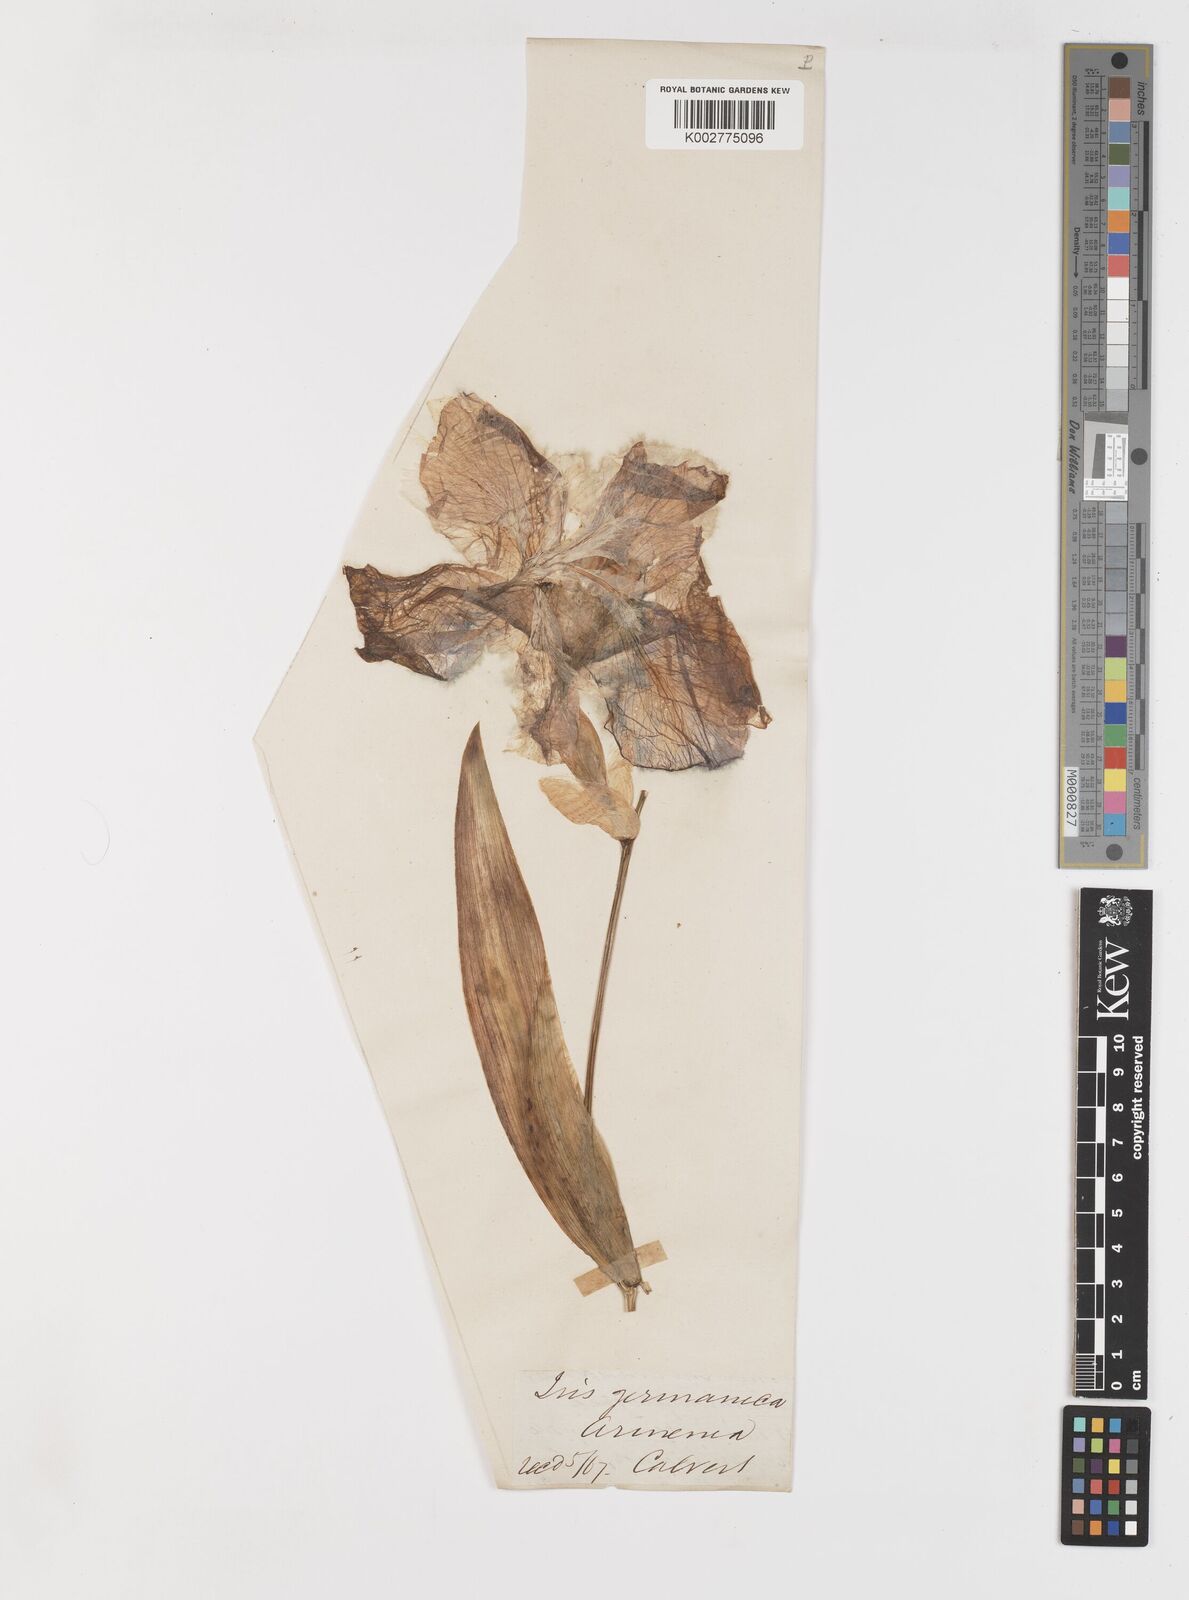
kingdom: Plantae
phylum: Tracheophyta
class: Liliopsida
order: Asparagales
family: Iridaceae
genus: Iris
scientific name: Iris germanica
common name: German iris
